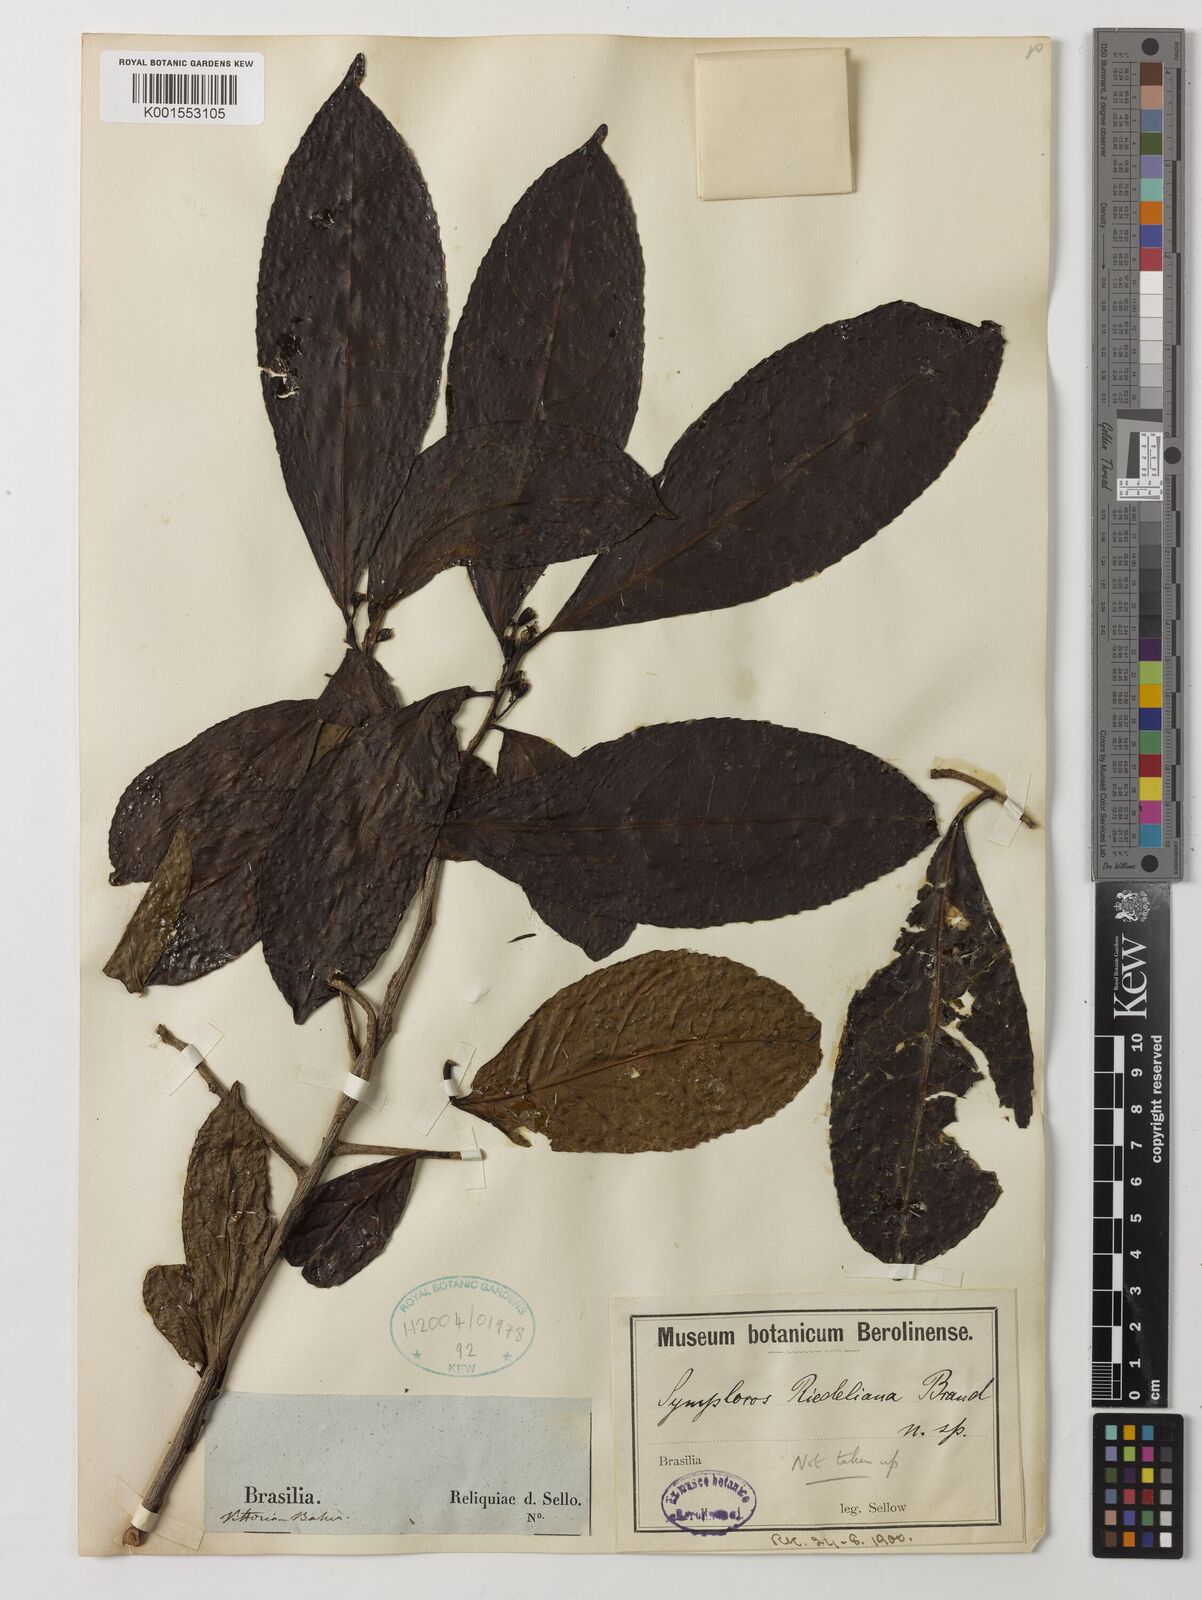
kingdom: Plantae
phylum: Tracheophyta
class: Magnoliopsida
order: Ericales
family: Symplocaceae
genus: Symplocos
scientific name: Symplocos
